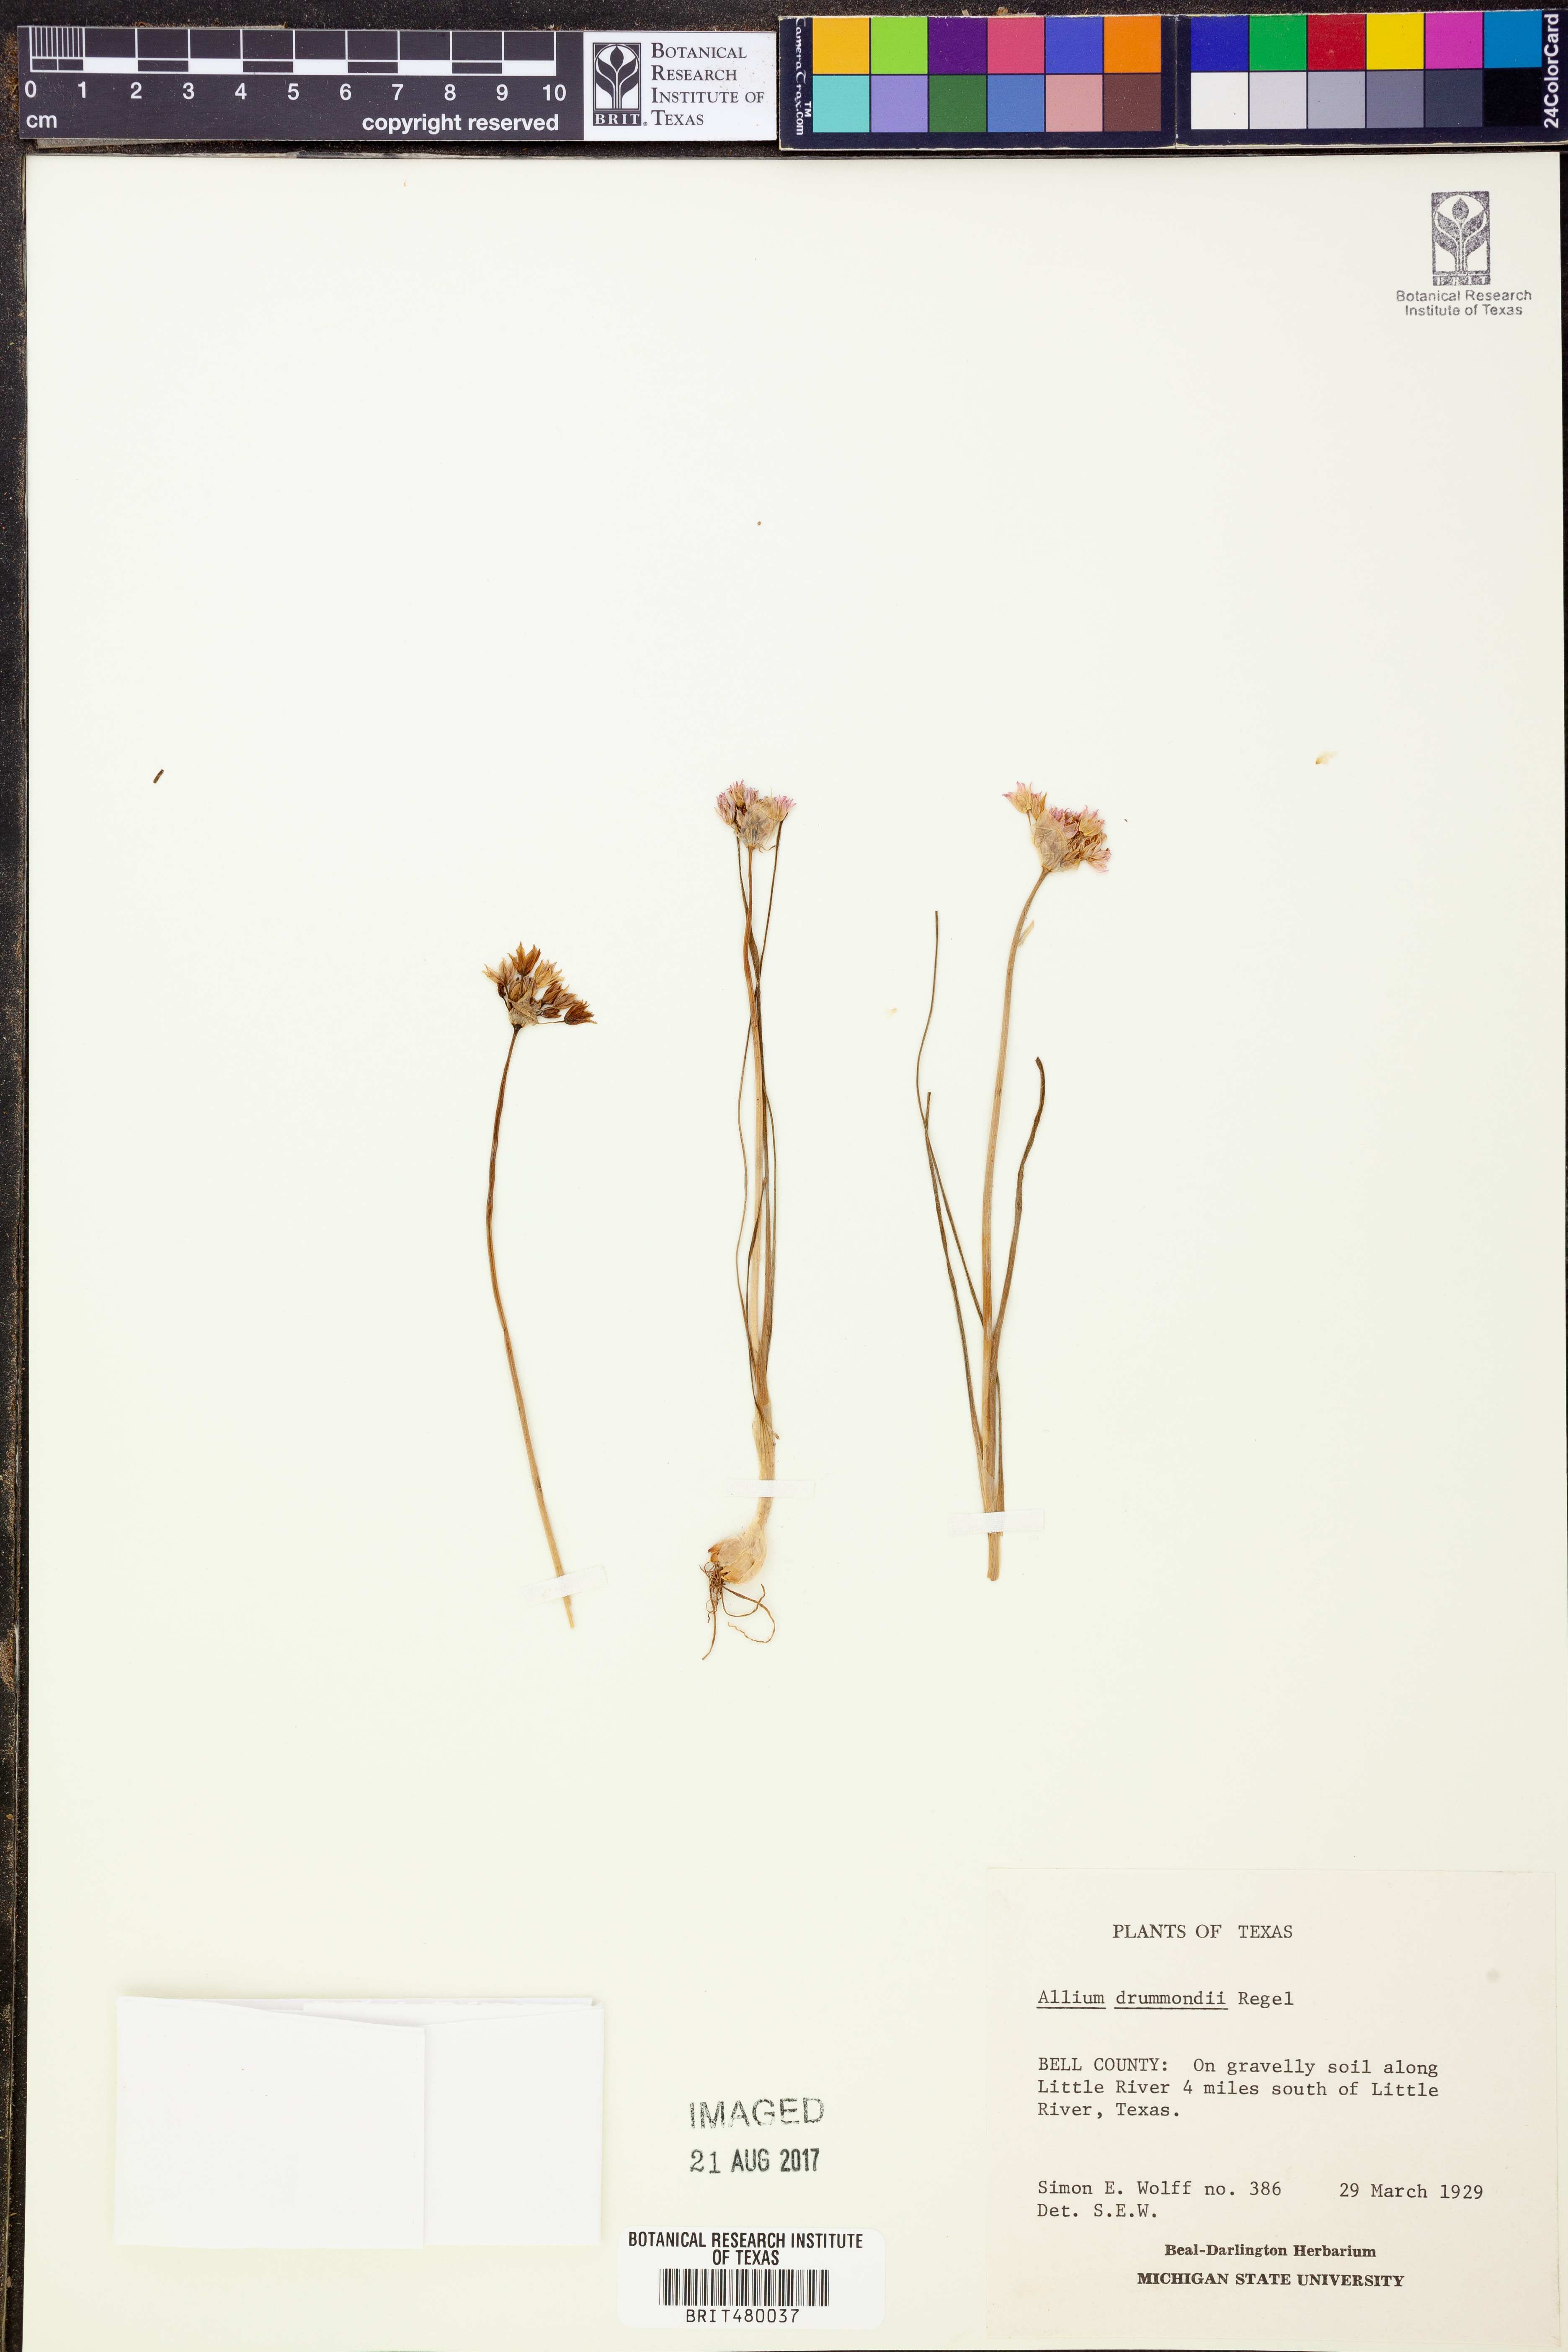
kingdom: Plantae
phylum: Tracheophyta
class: Liliopsida
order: Asparagales
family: Amaryllidaceae
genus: Allium
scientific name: Allium drummondii
